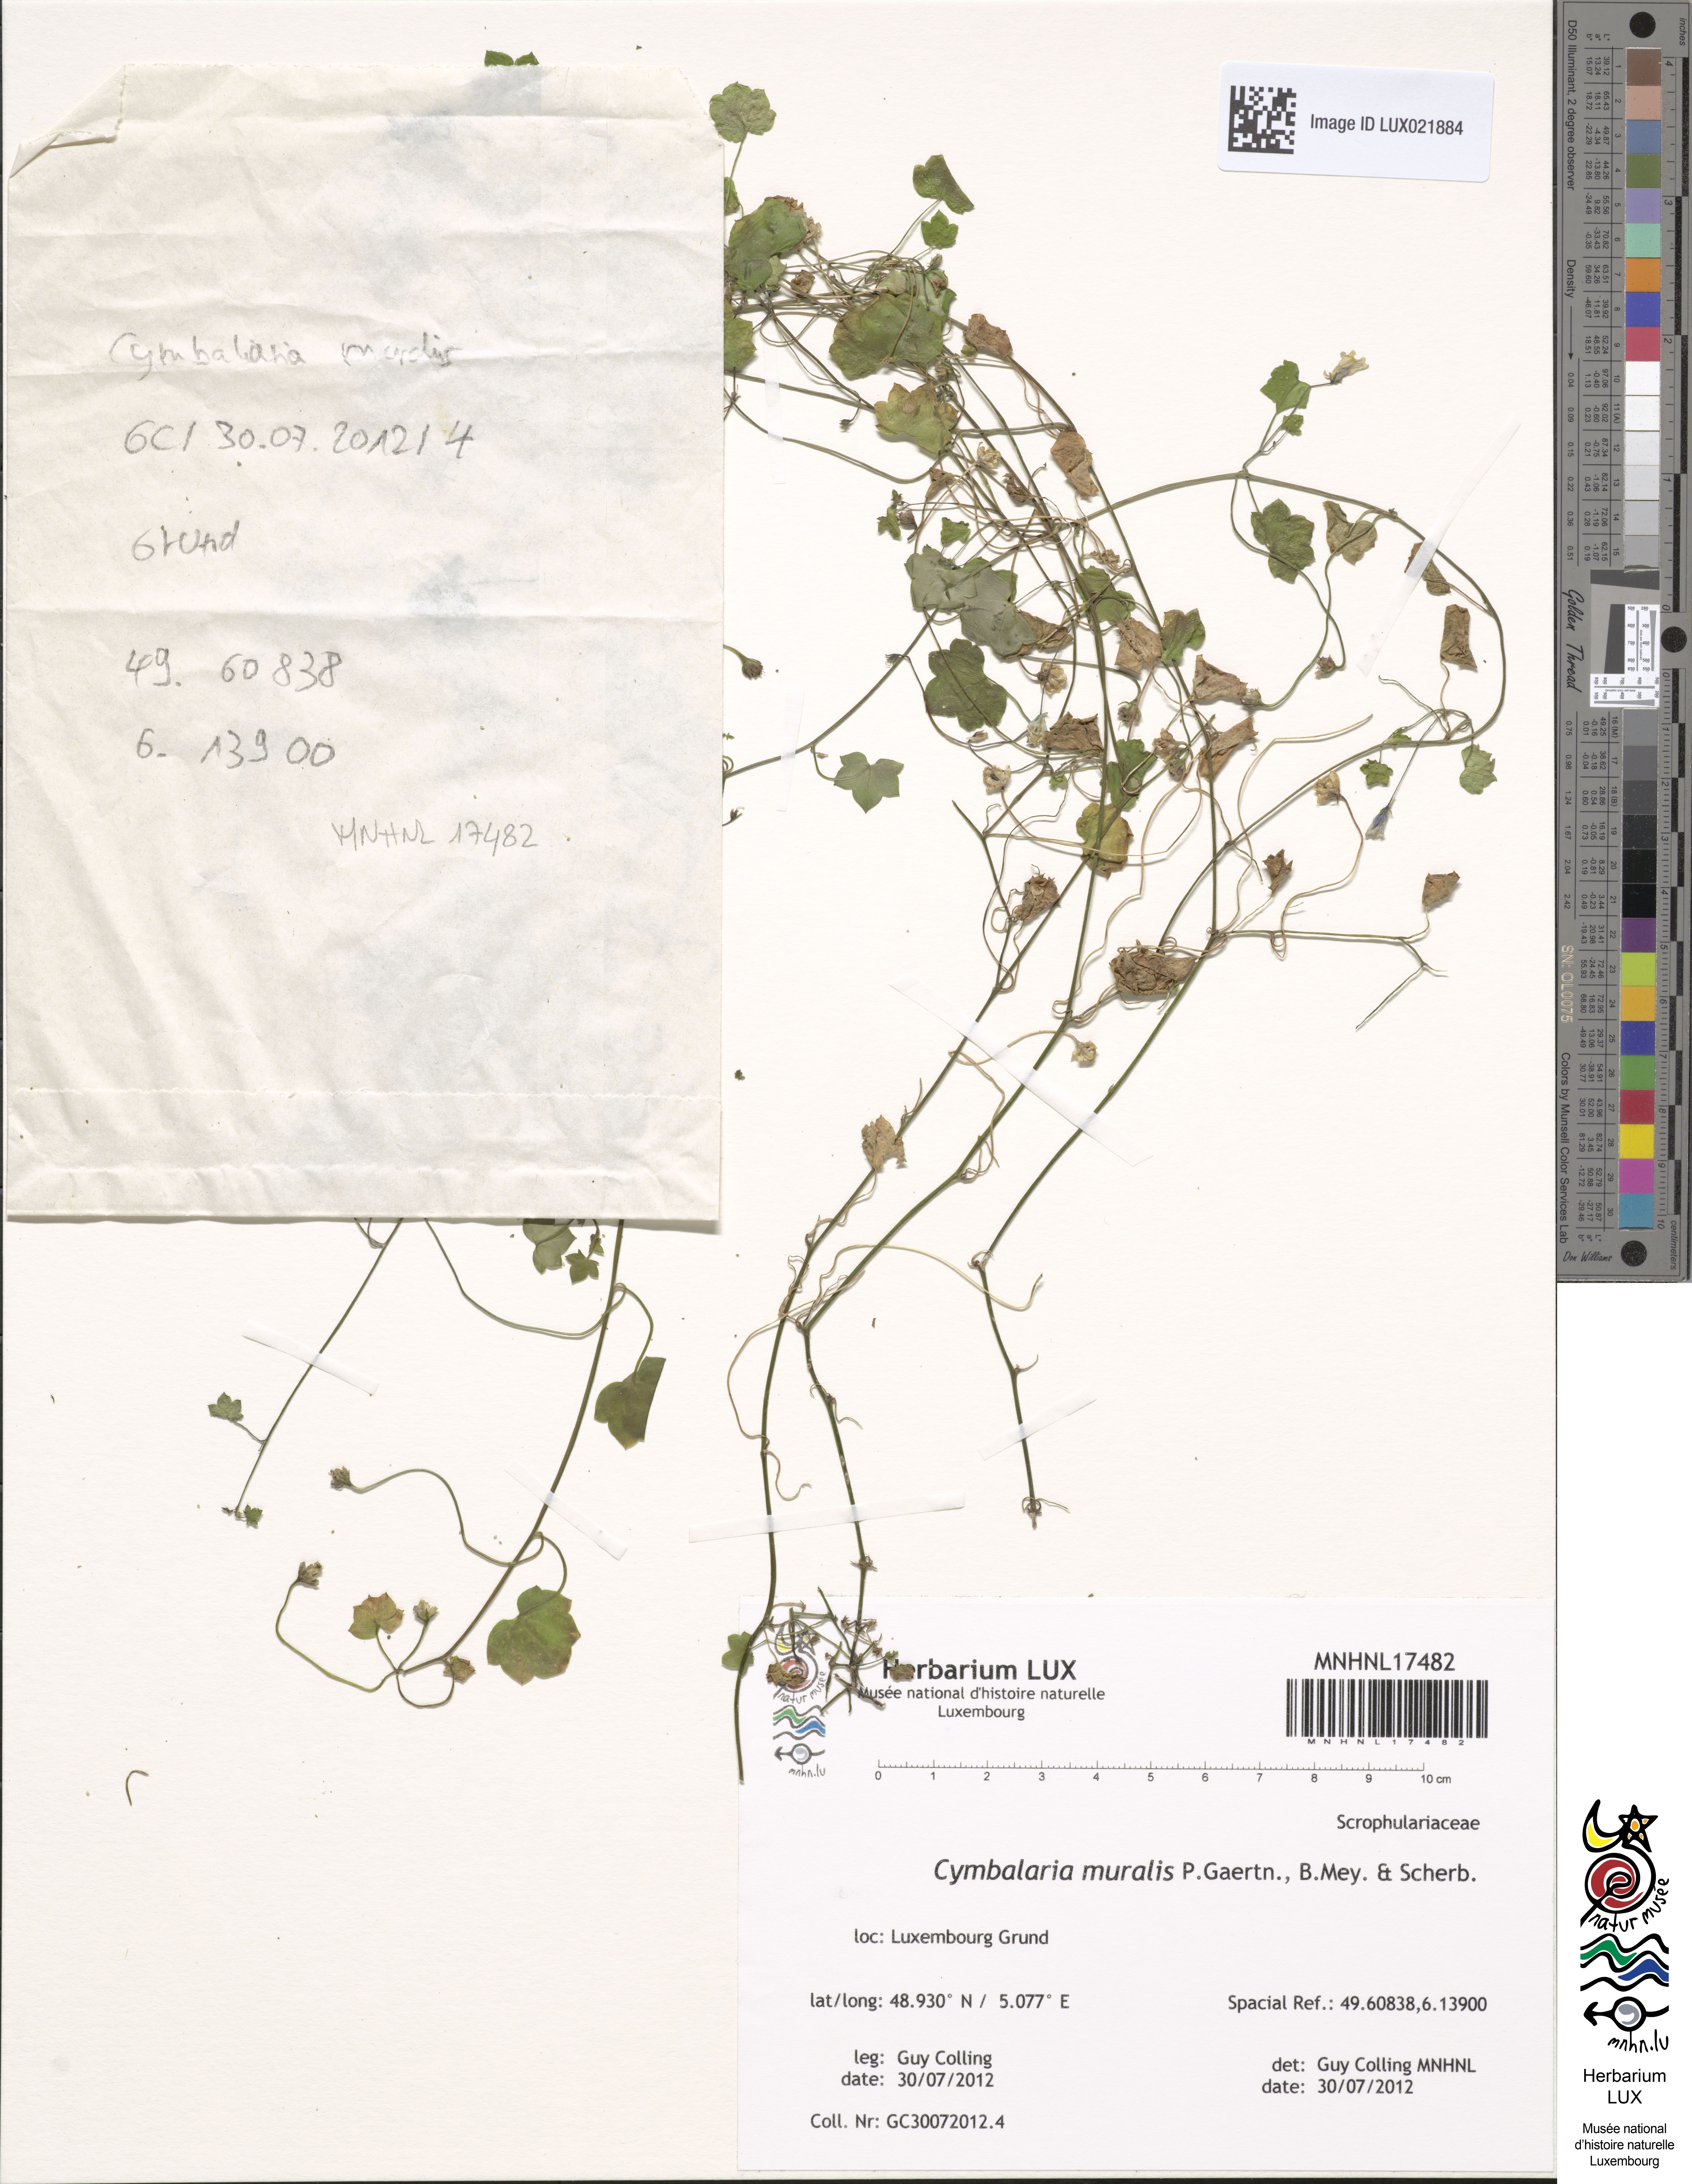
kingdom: Plantae
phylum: Tracheophyta
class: Magnoliopsida
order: Lamiales
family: Plantaginaceae
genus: Cymbalaria
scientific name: Cymbalaria muralis
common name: Ivy-leaved toadflax
